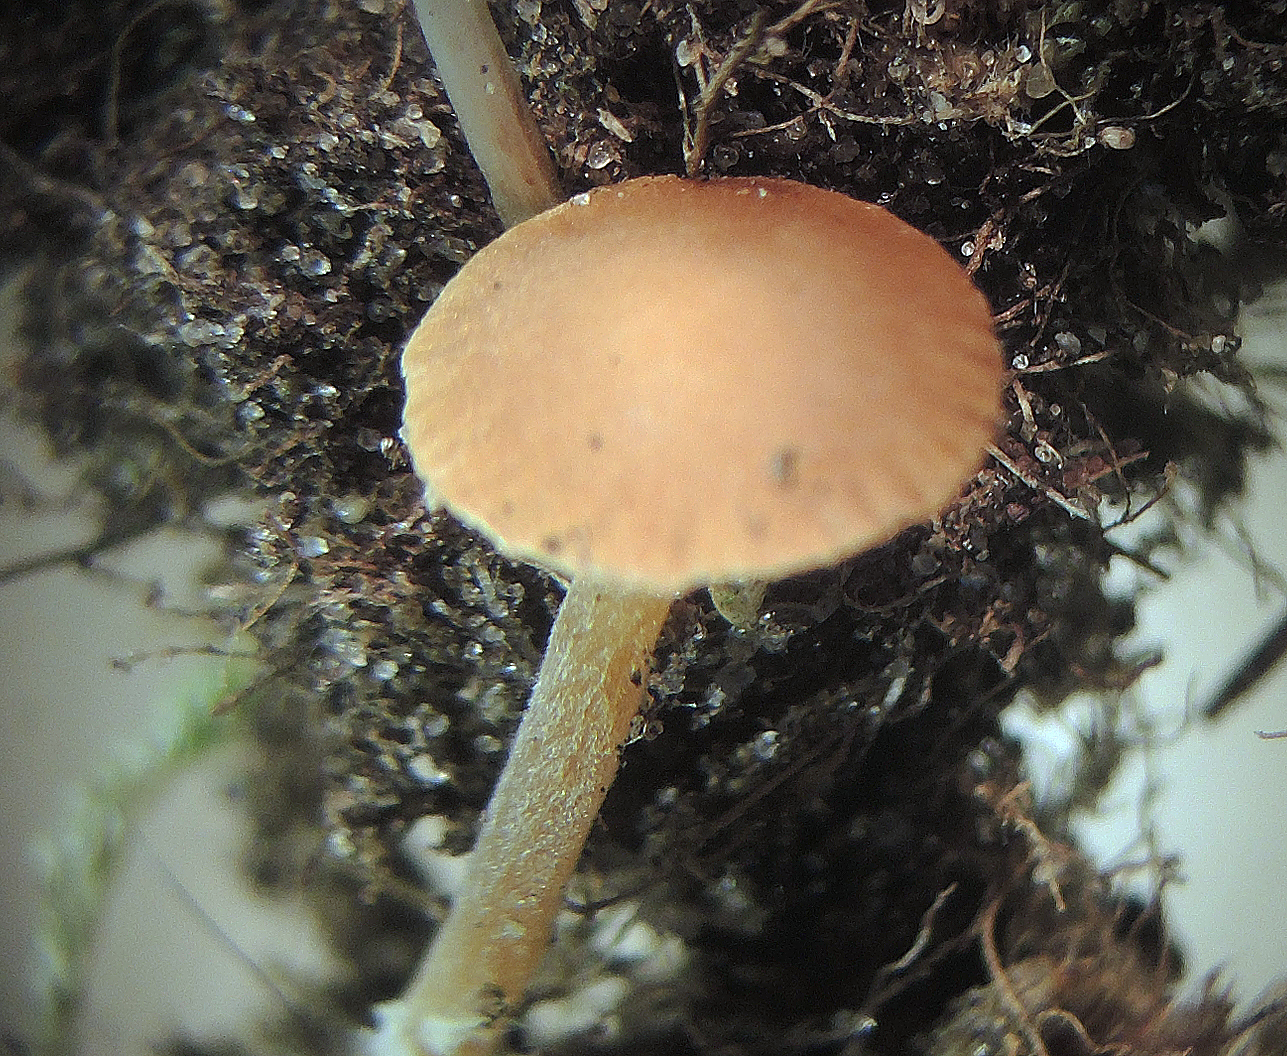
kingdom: Fungi
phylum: Basidiomycota
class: Agaricomycetes
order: Agaricales
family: Hymenogastraceae
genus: Galerina
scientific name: Galerina vittiformis
